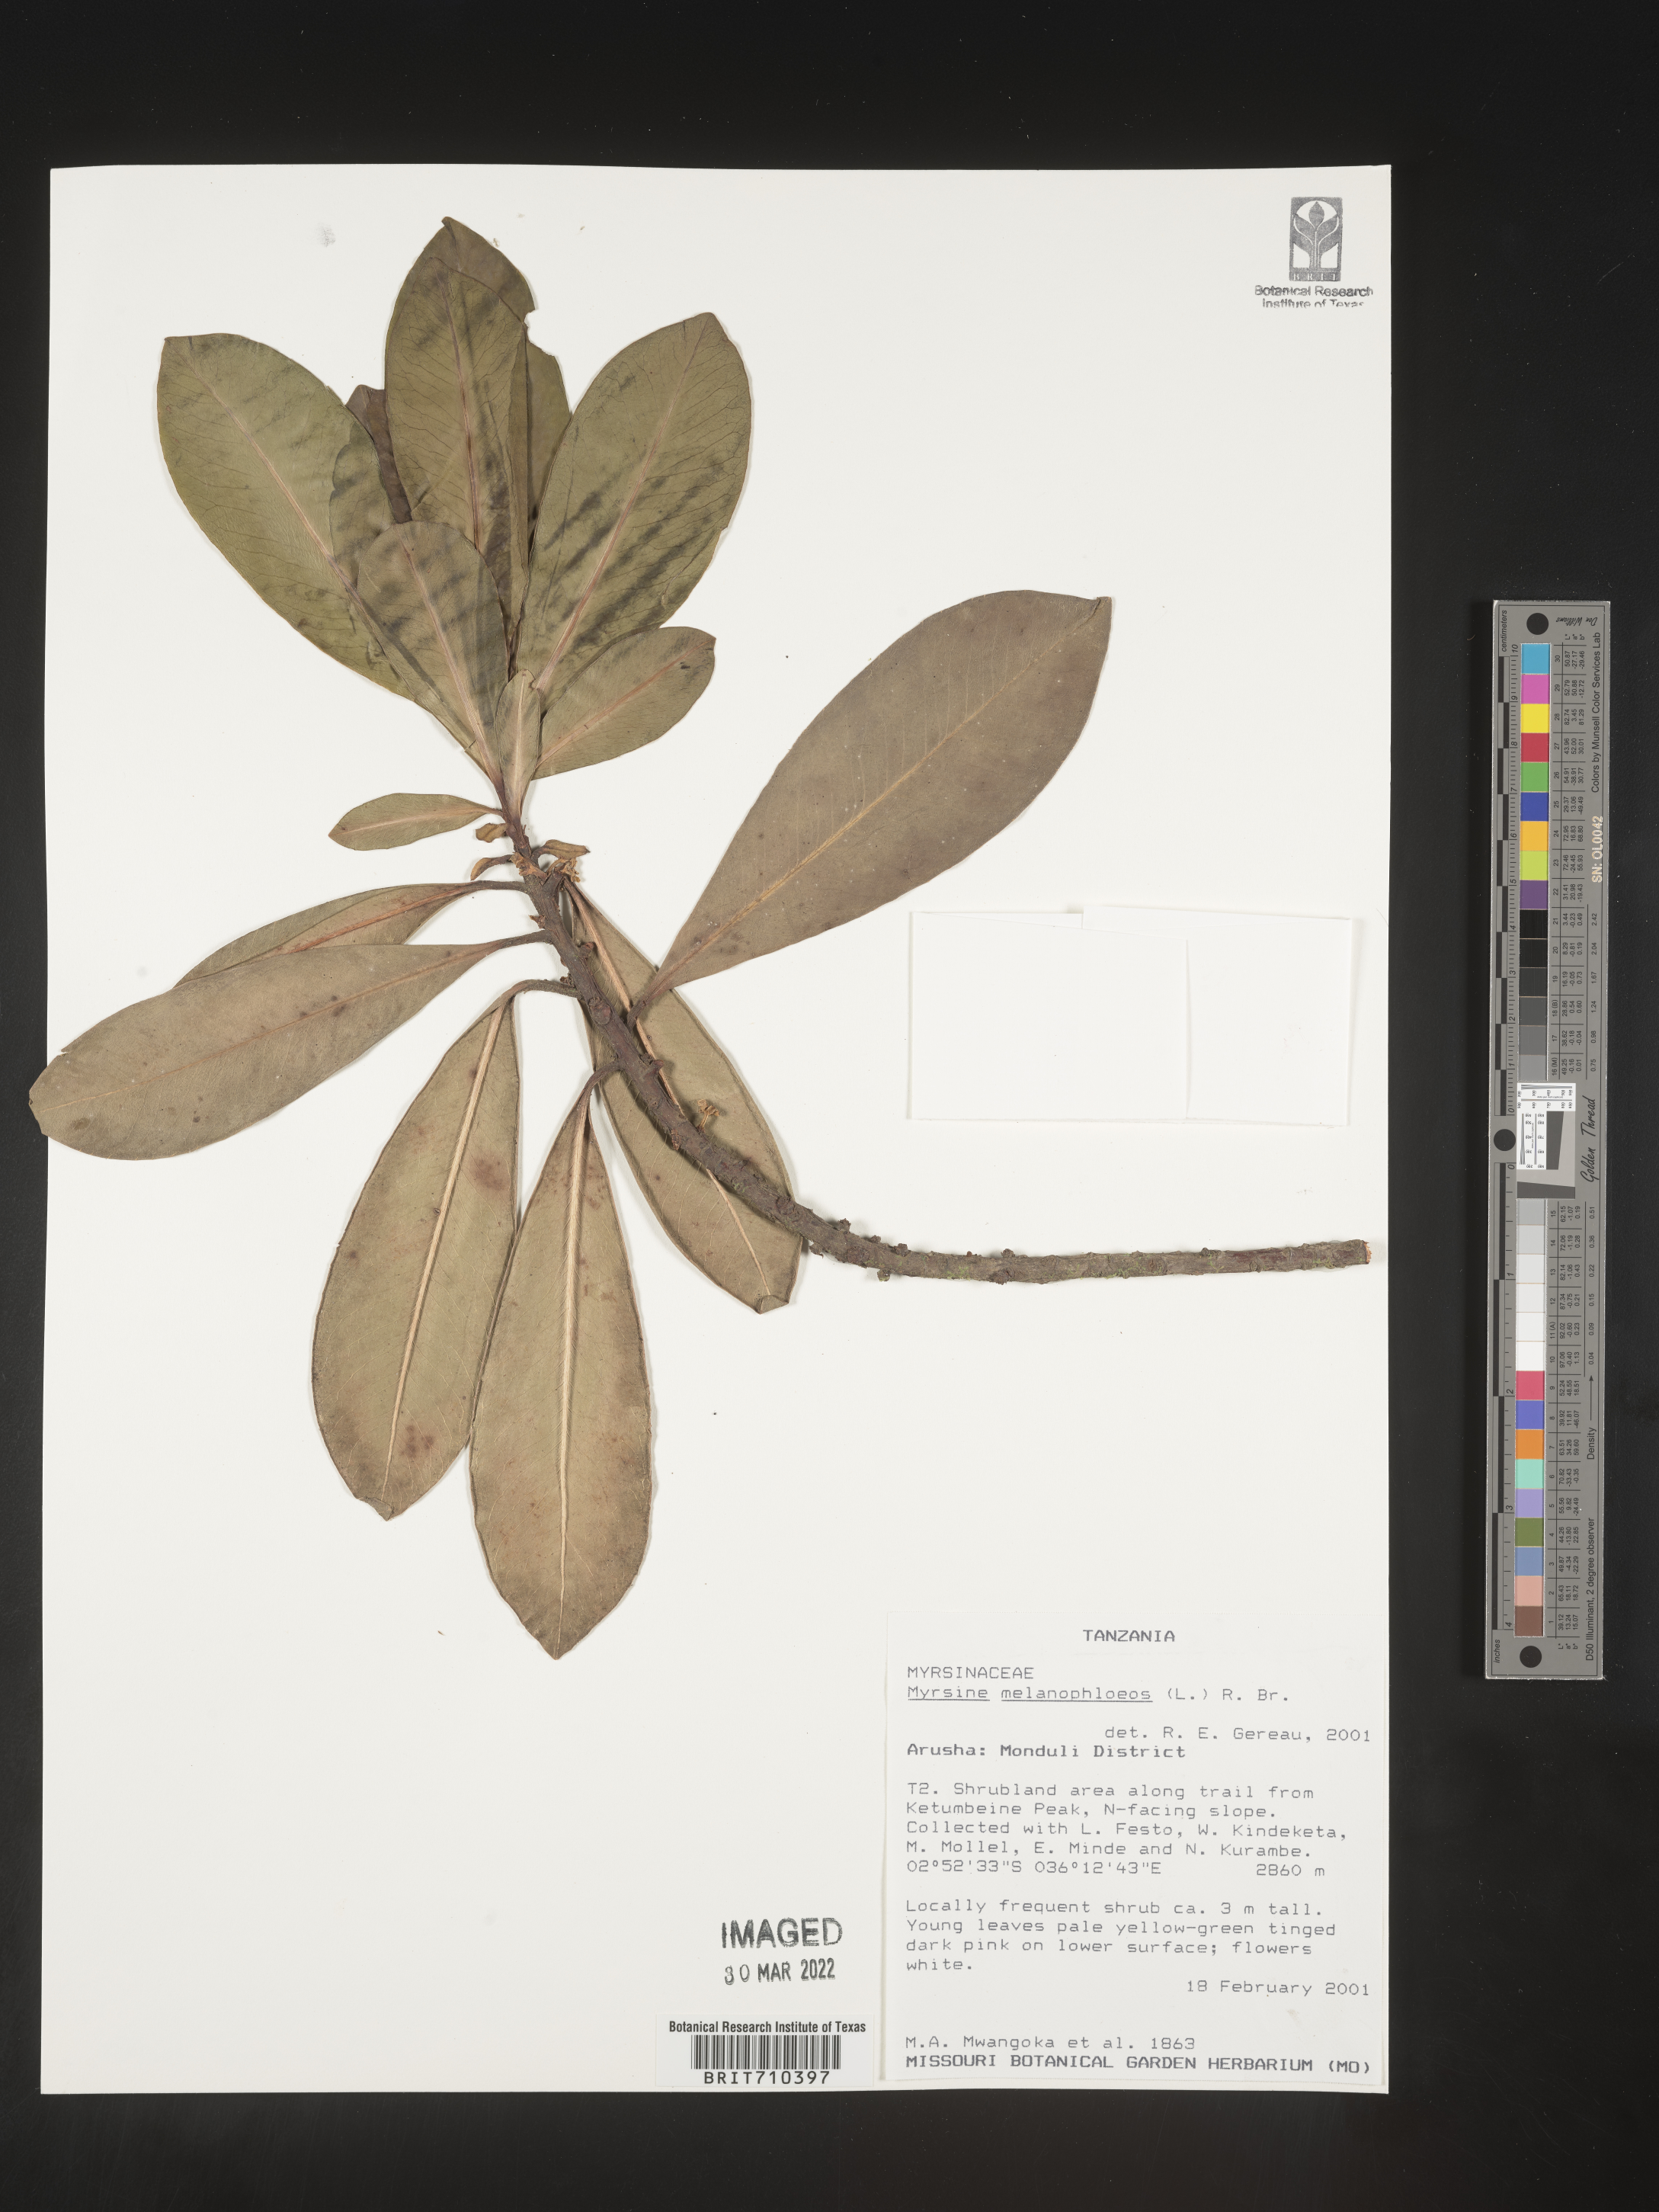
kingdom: Plantae
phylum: Tracheophyta
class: Magnoliopsida
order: Ericales
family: Primulaceae
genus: Myrsine
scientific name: Myrsine
